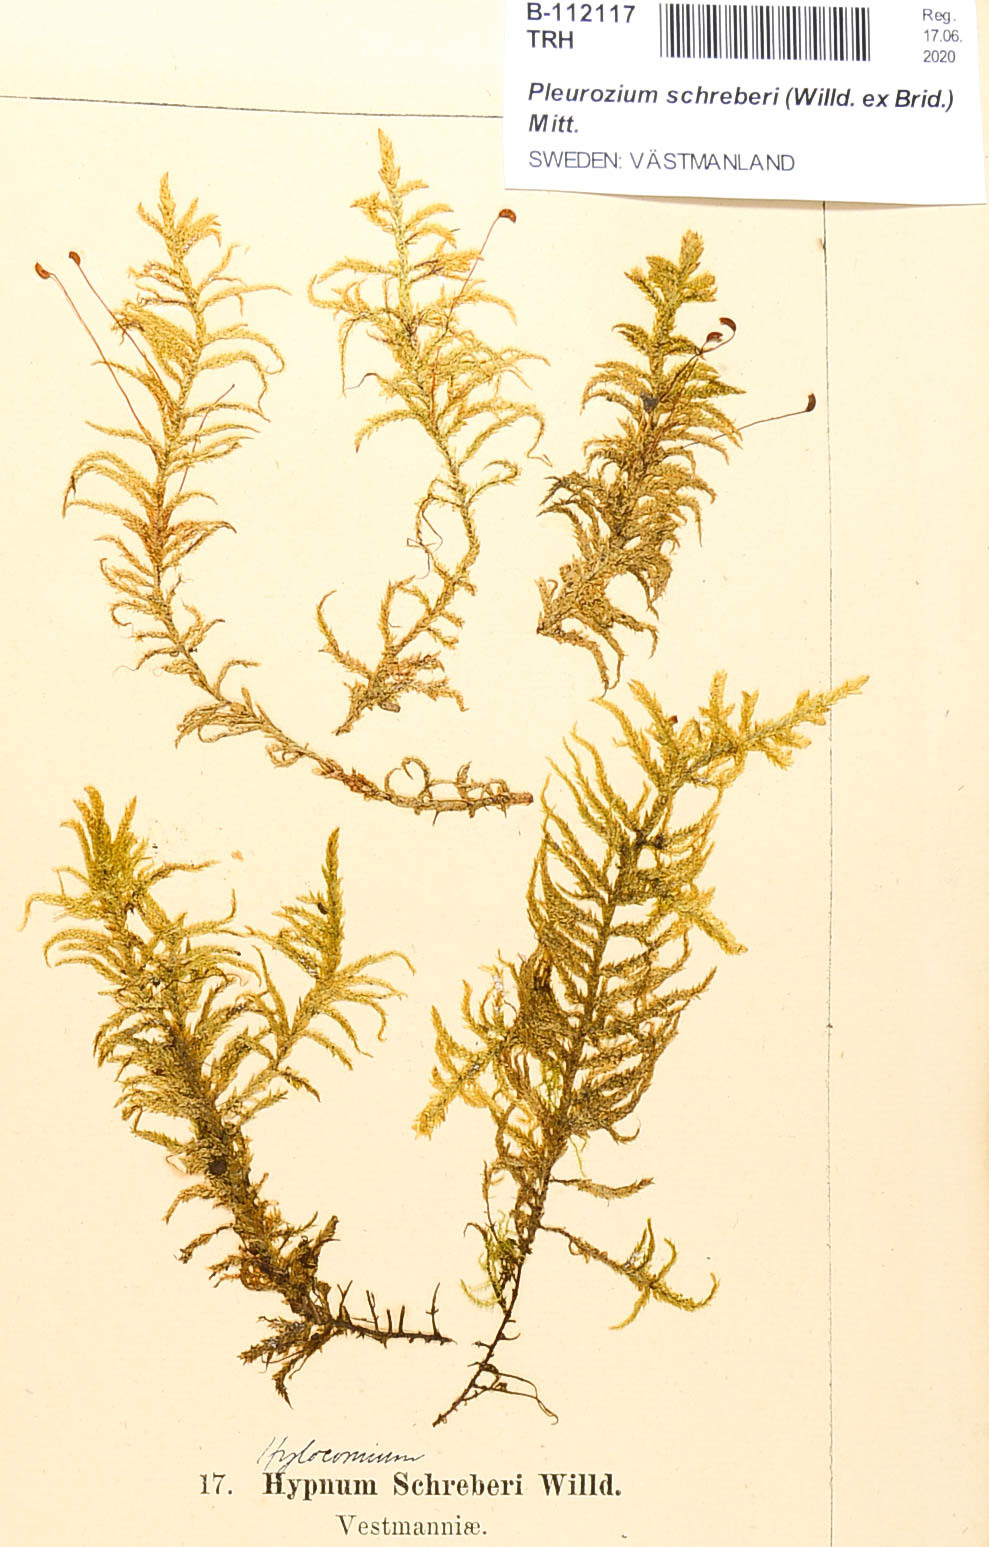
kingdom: Plantae
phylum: Bryophyta
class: Bryopsida
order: Hypnales
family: Hylocomiaceae
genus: Pleurozium
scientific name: Pleurozium schreberi
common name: Red-stemmed feather moss
